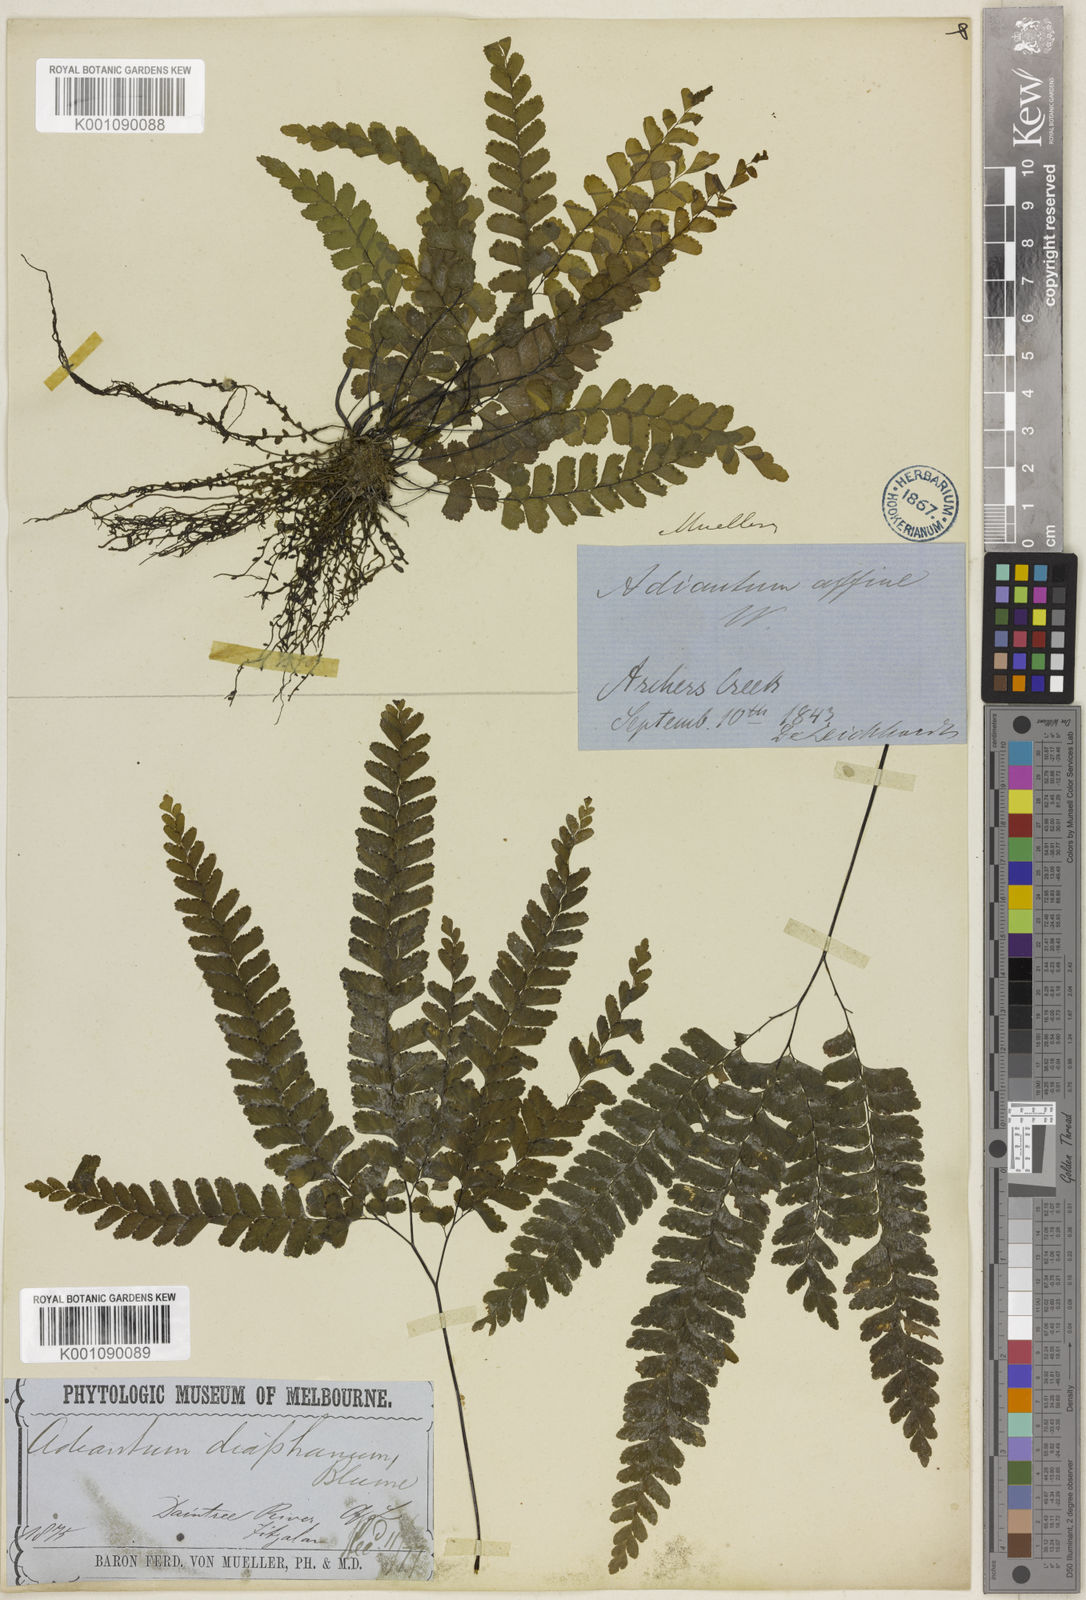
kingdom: Plantae
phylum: Tracheophyta
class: Polypodiopsida
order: Polypodiales
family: Pteridaceae
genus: Adiantum
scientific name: Adiantum diaphanum
